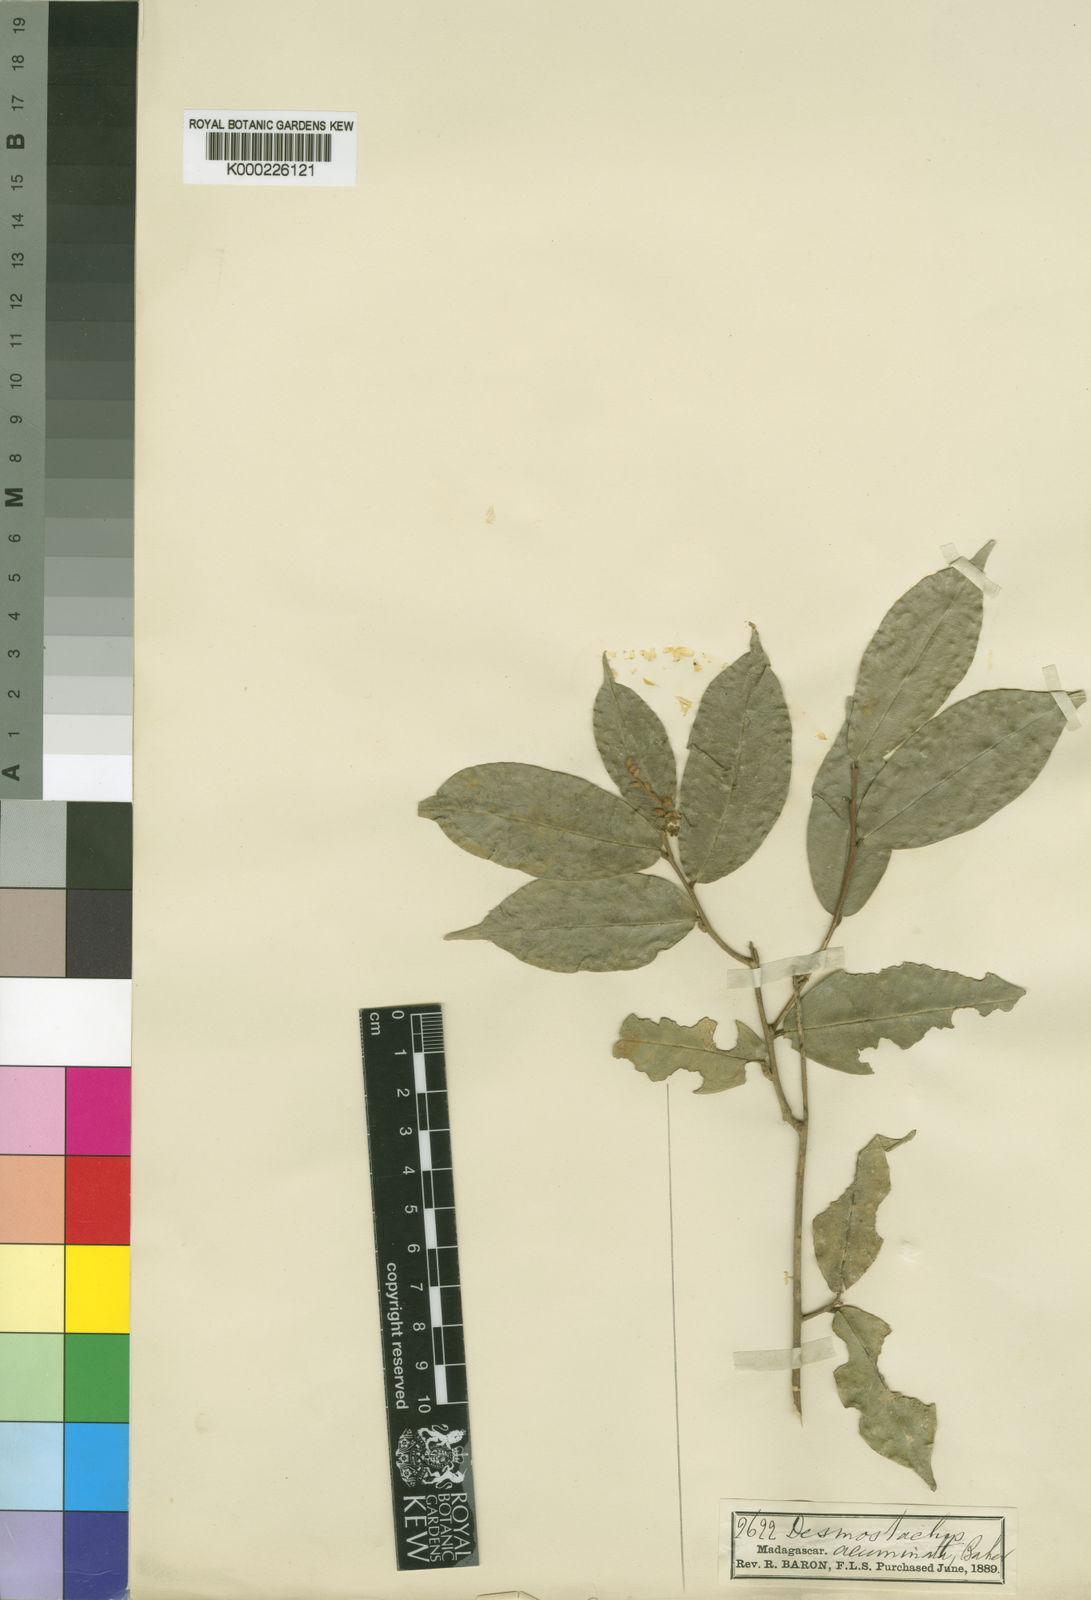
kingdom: Plantae
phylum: Tracheophyta
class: Magnoliopsida
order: Icacinales
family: Icacinaceae
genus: Desmostachys
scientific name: Desmostachys planchonianus
